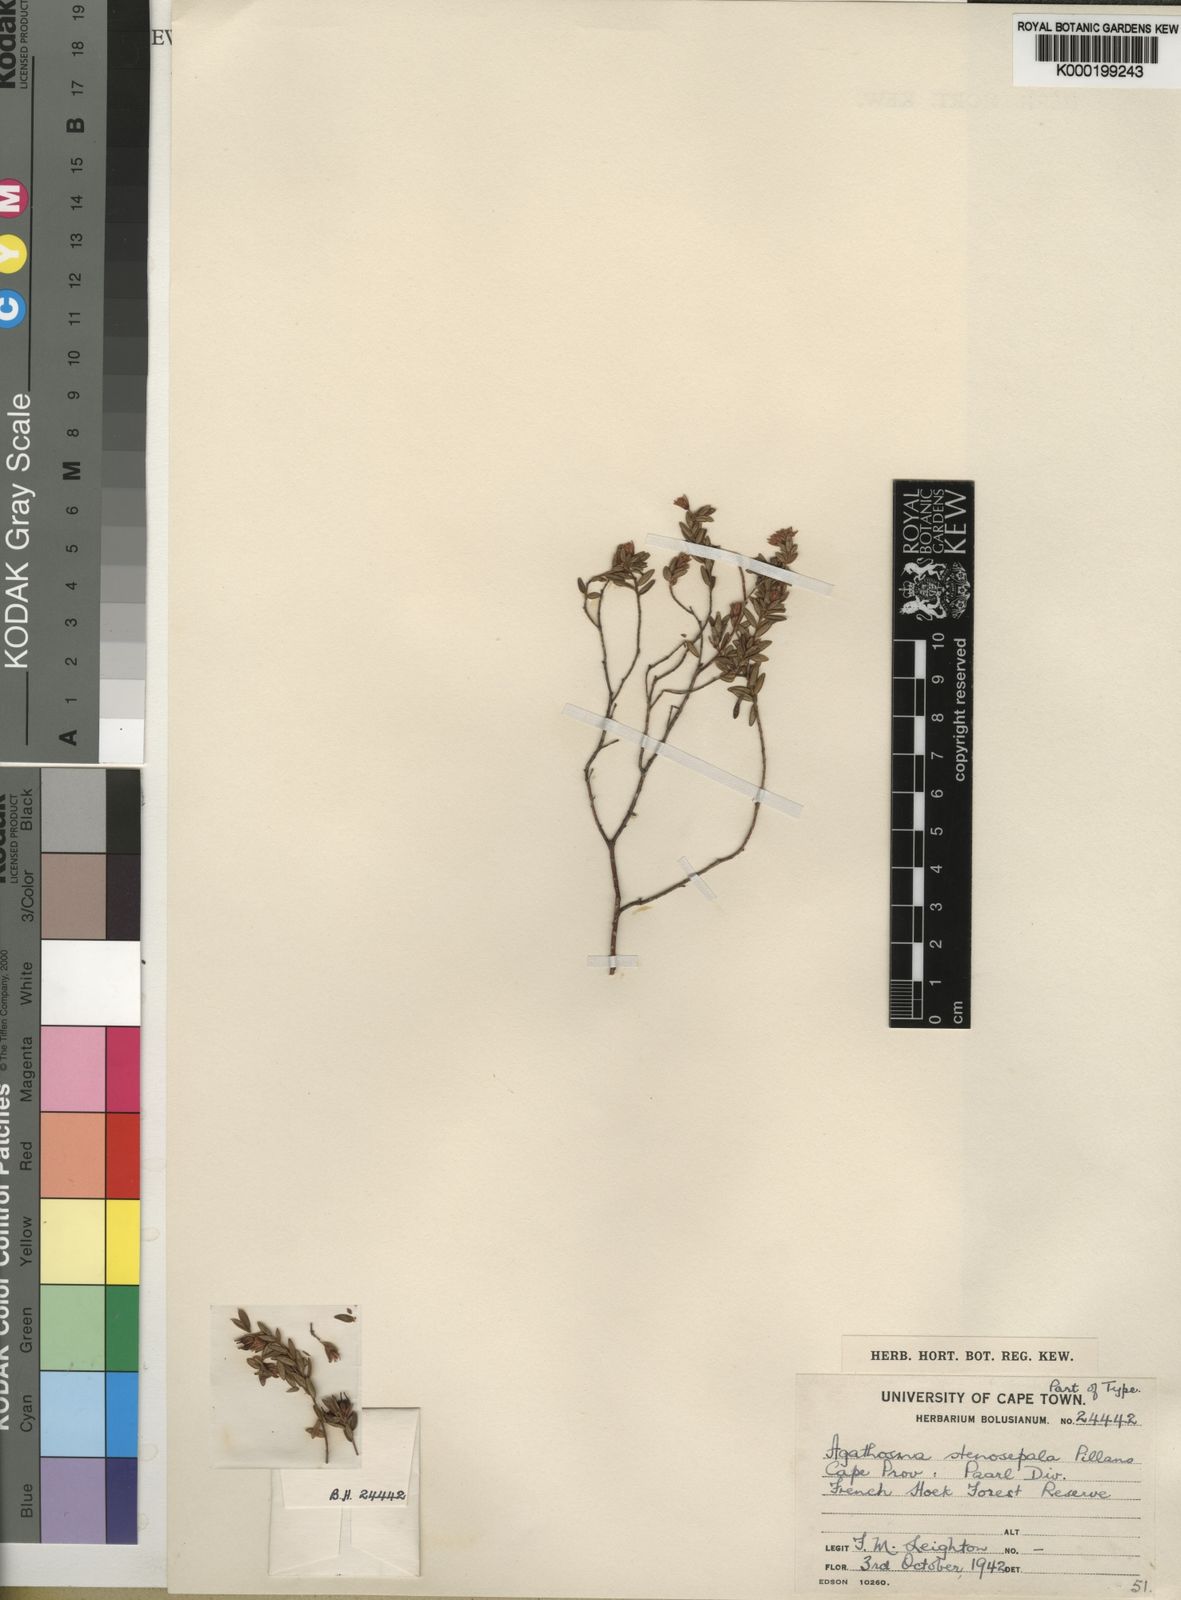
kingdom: Plantae
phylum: Tracheophyta
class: Magnoliopsida
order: Sapindales
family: Rutaceae
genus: Agathosma
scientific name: Agathosma stenosepala
